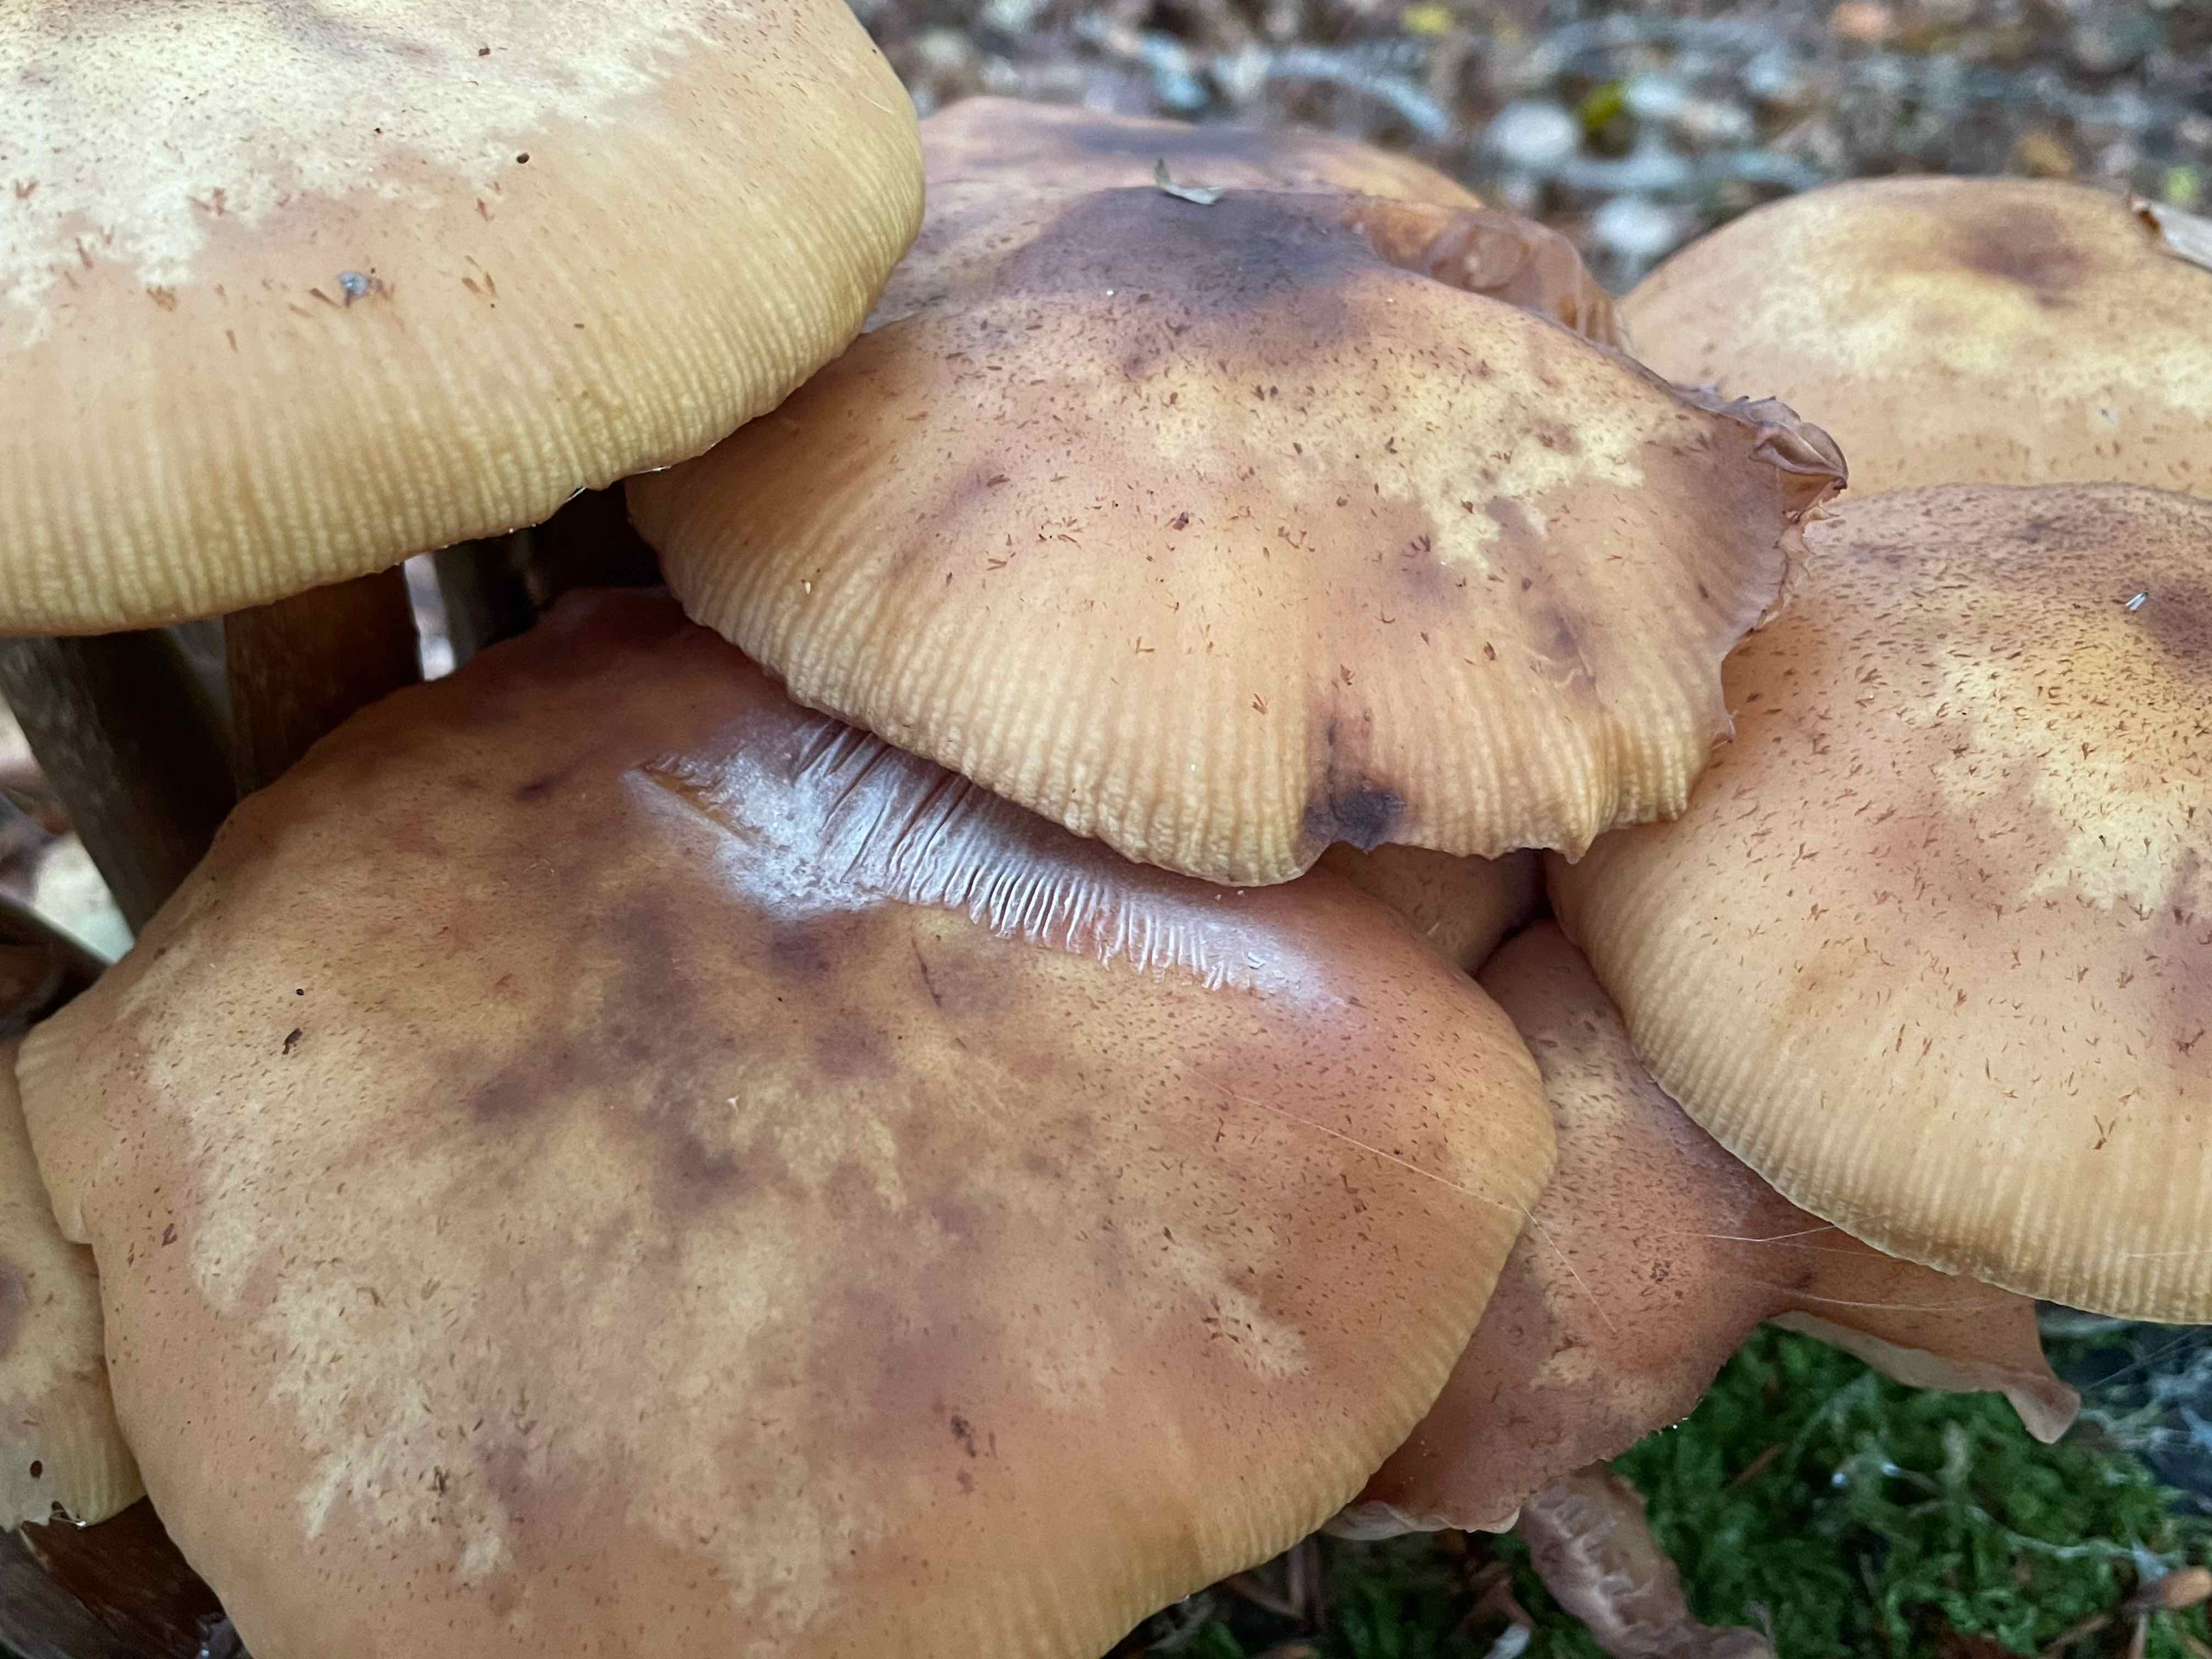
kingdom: Fungi
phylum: Basidiomycota
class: Agaricomycetes
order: Agaricales
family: Physalacriaceae
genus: Armillaria
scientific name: Armillaria
